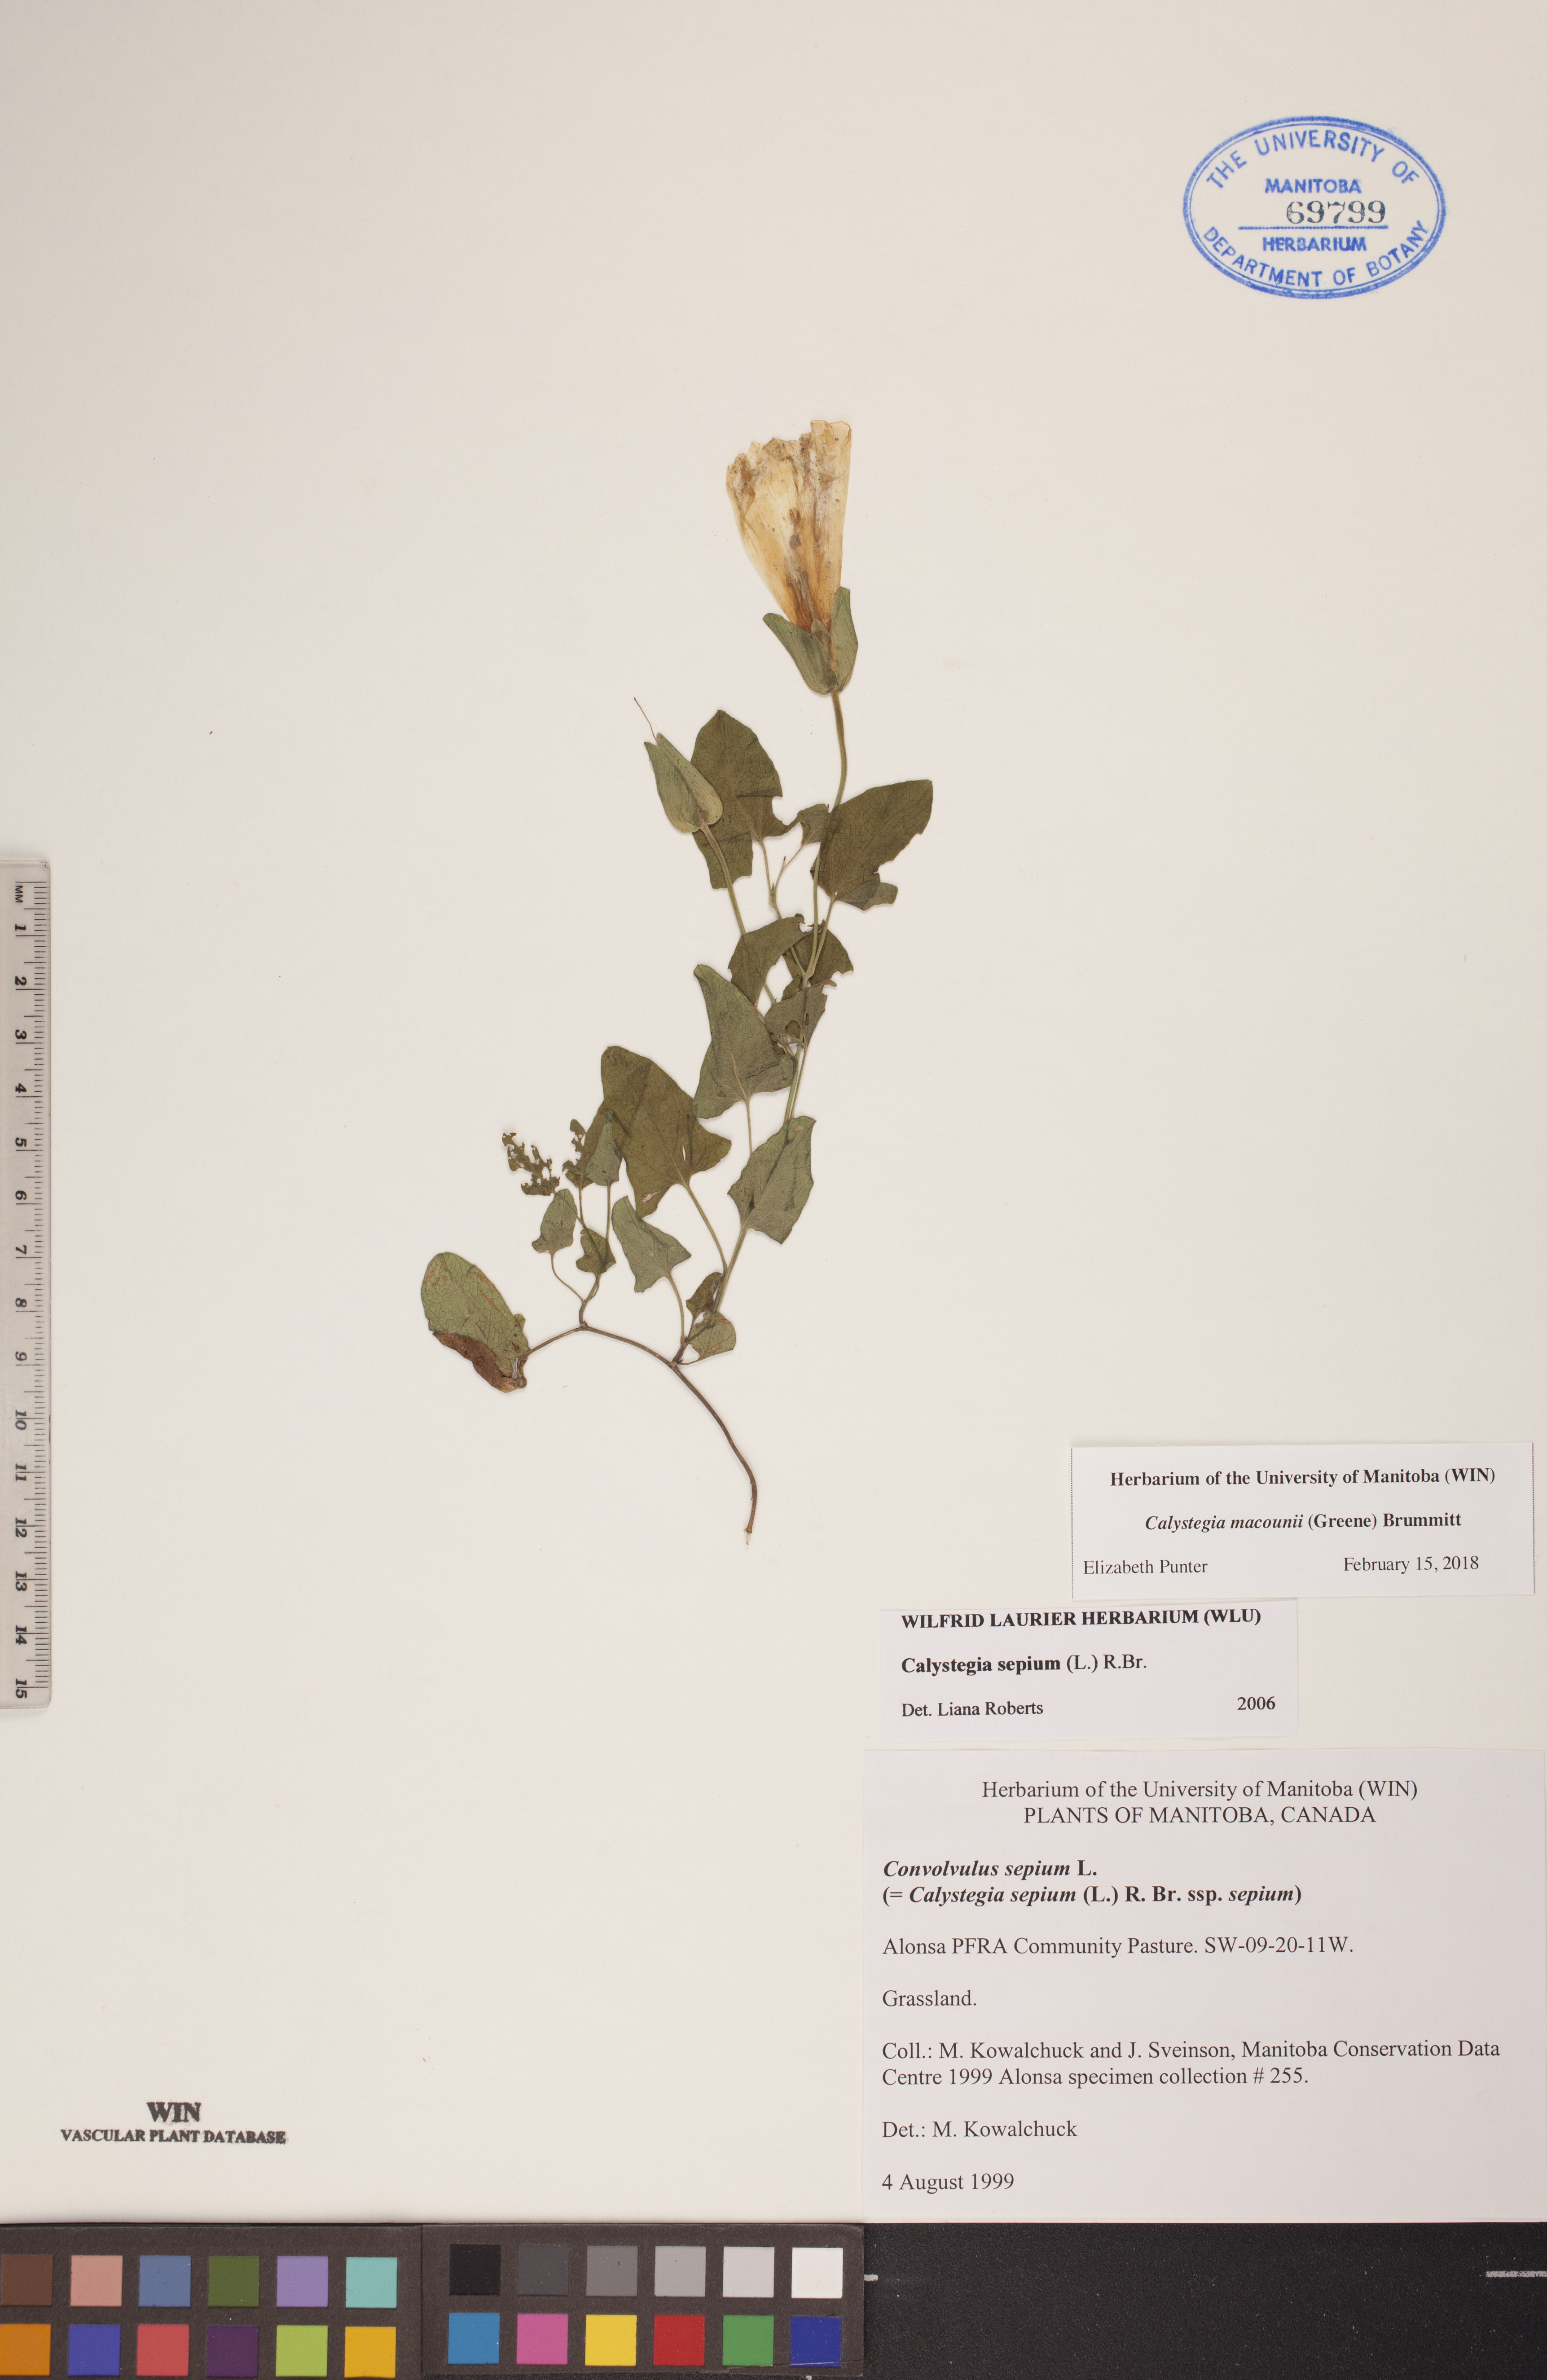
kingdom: Plantae
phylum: Tracheophyta
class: Magnoliopsida
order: Solanales
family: Convolvulaceae
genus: Calystegia
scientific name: Calystegia macounii
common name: Macoun's bindweed
